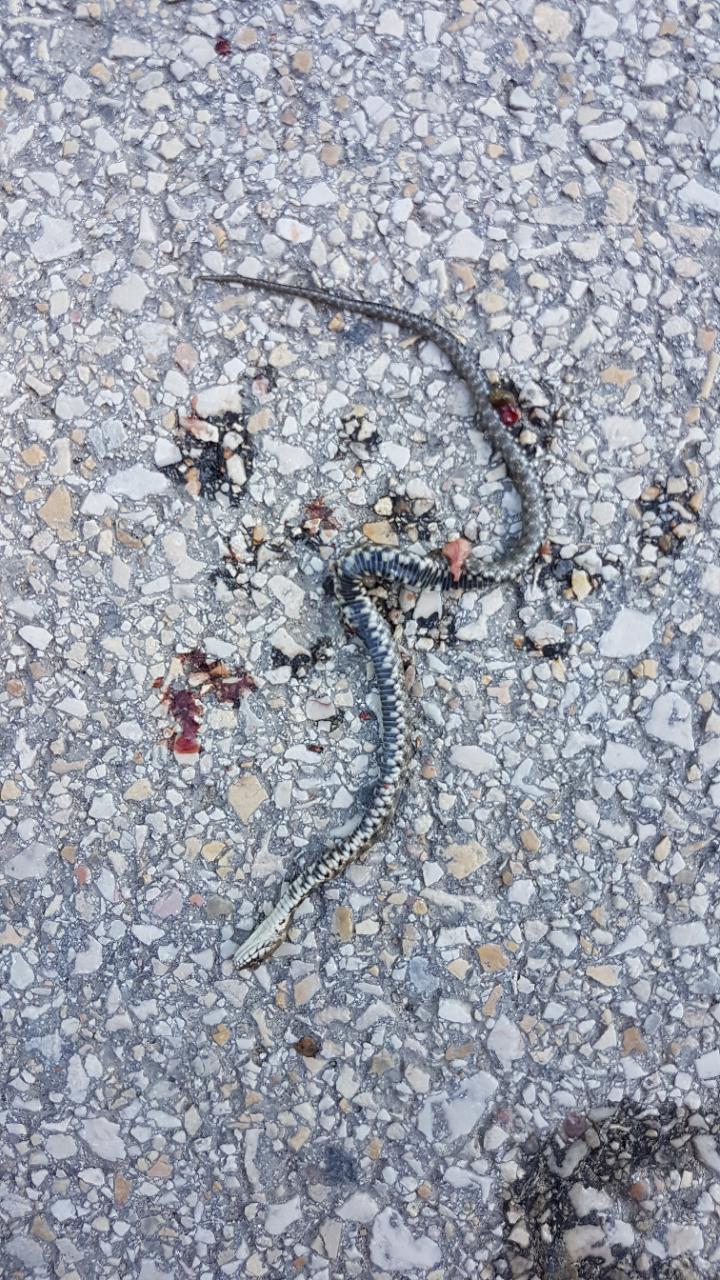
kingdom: Animalia
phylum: Chordata
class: Squamata
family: Colubridae
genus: Natrix
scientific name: Natrix tessellata
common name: Dice snake
